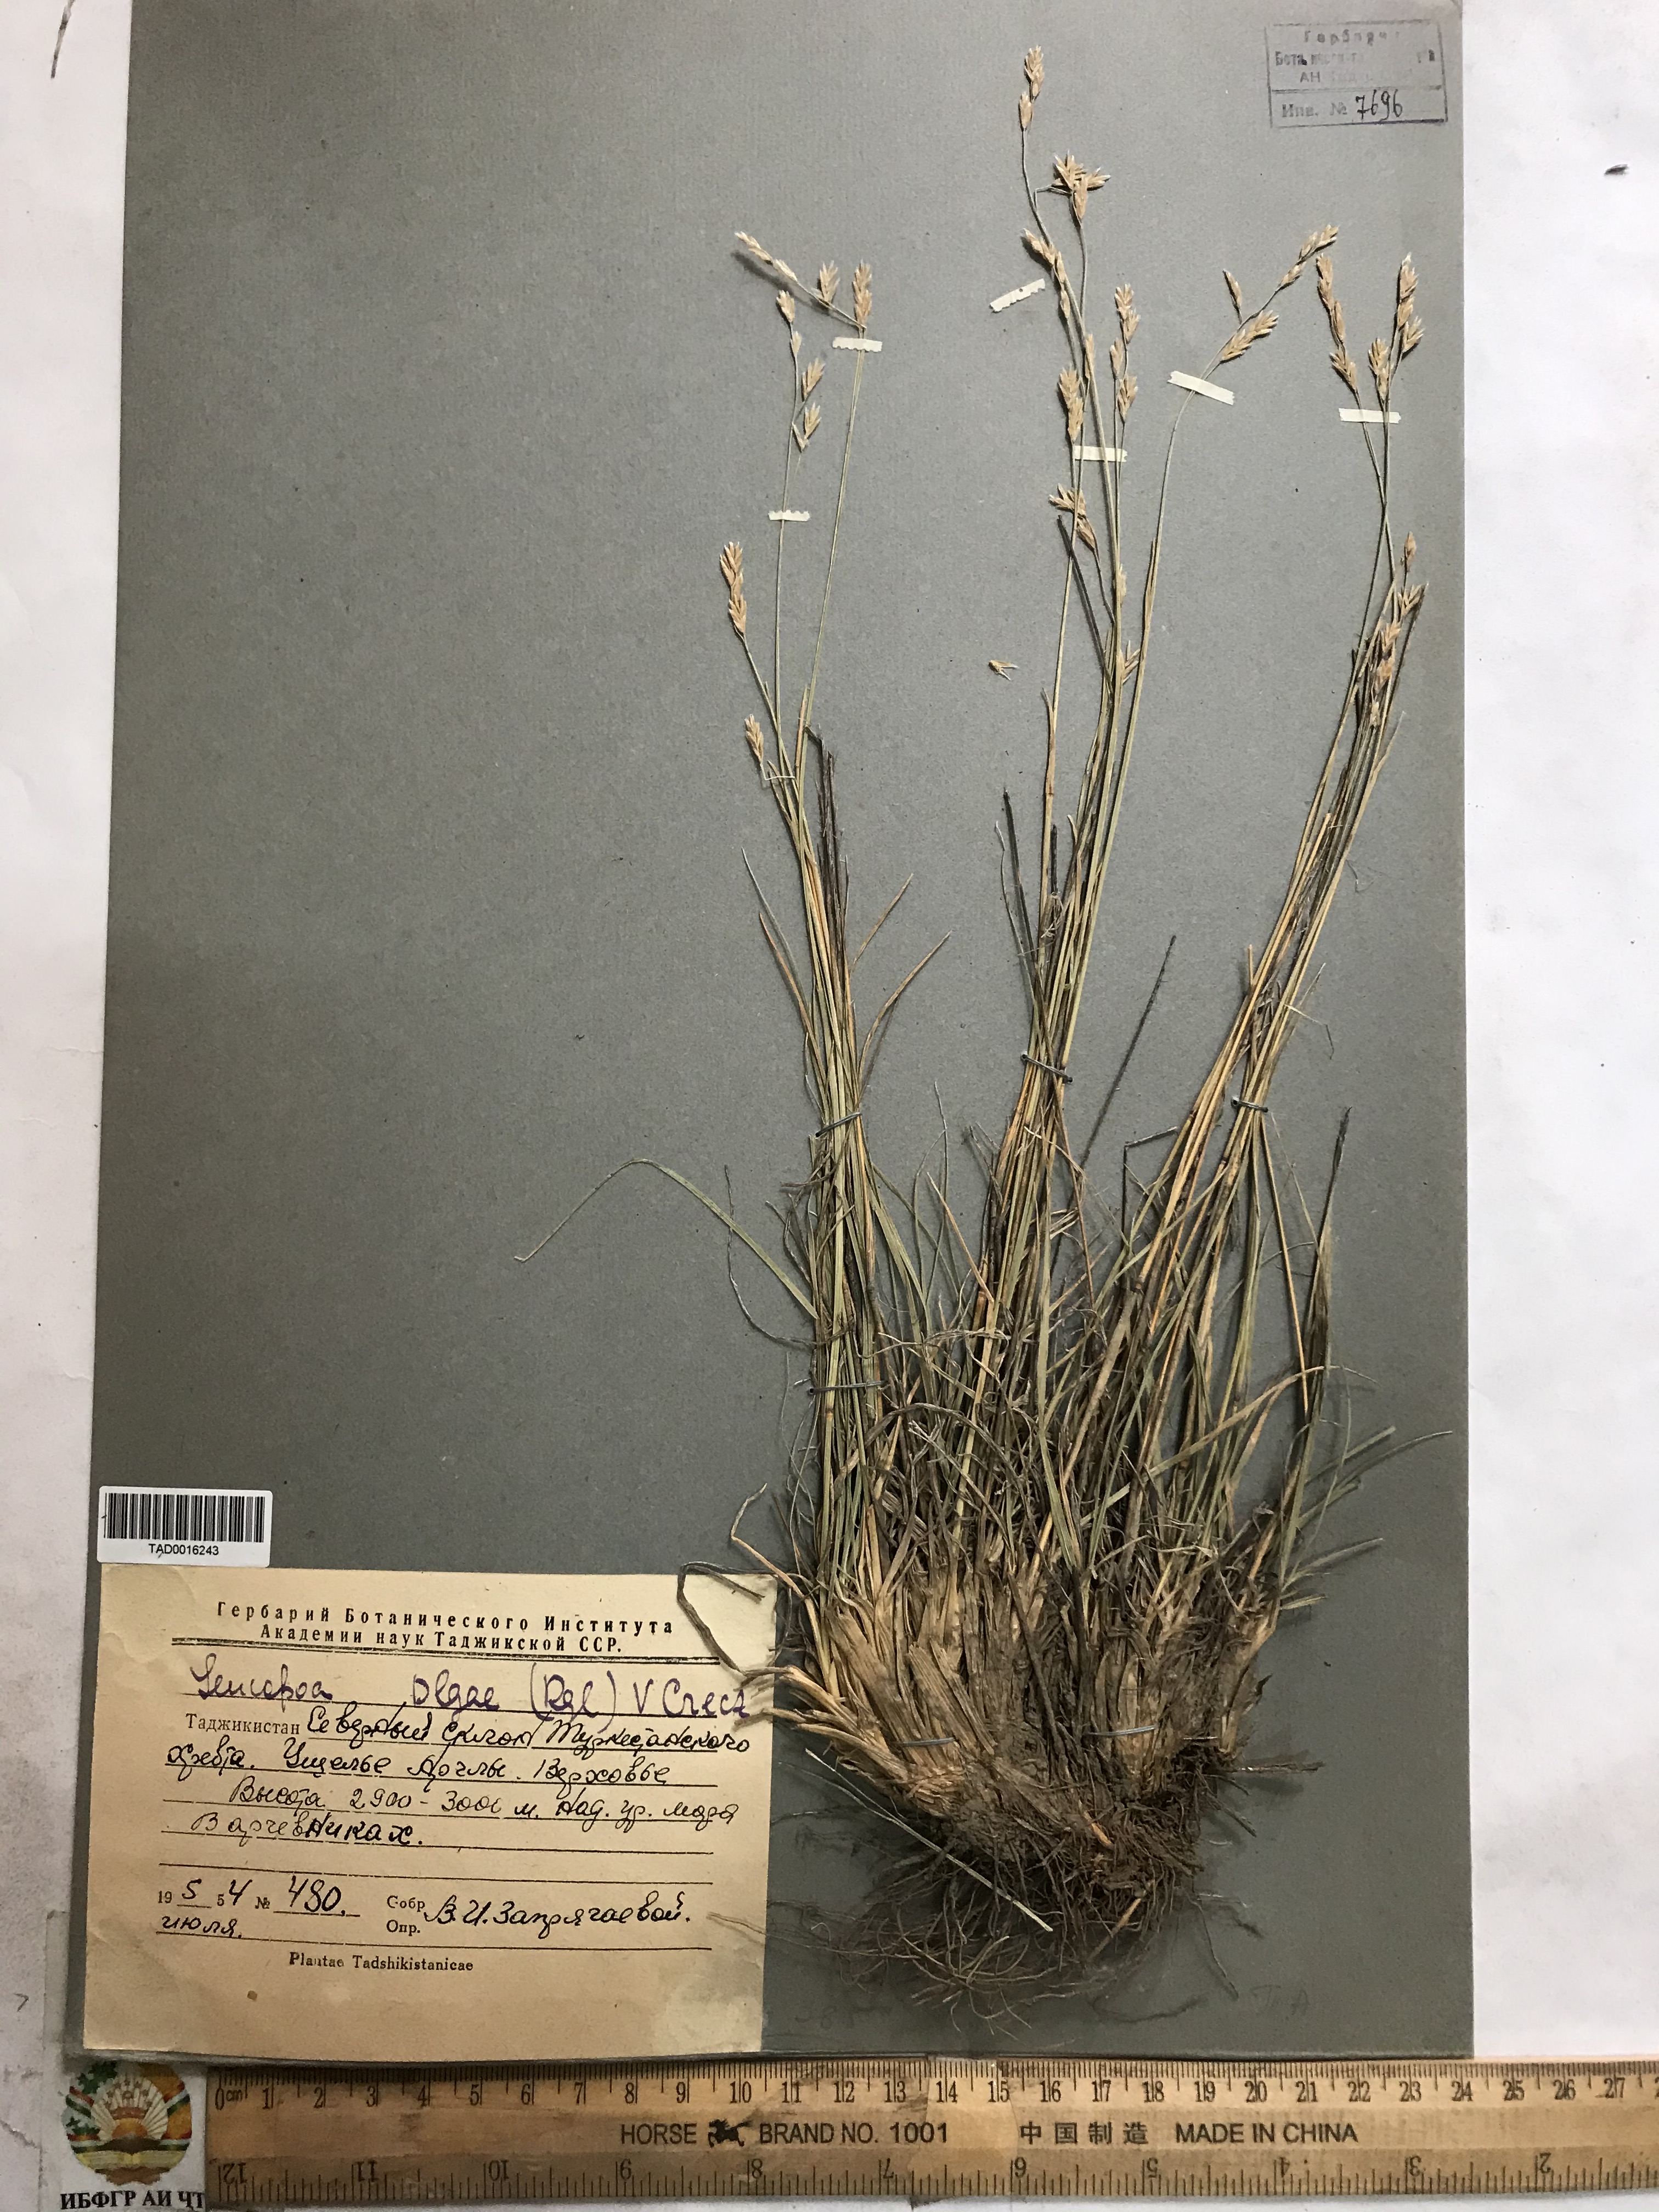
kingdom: Plantae
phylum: Tracheophyta
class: Liliopsida
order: Poales
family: Poaceae
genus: Festuca
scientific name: Festuca
